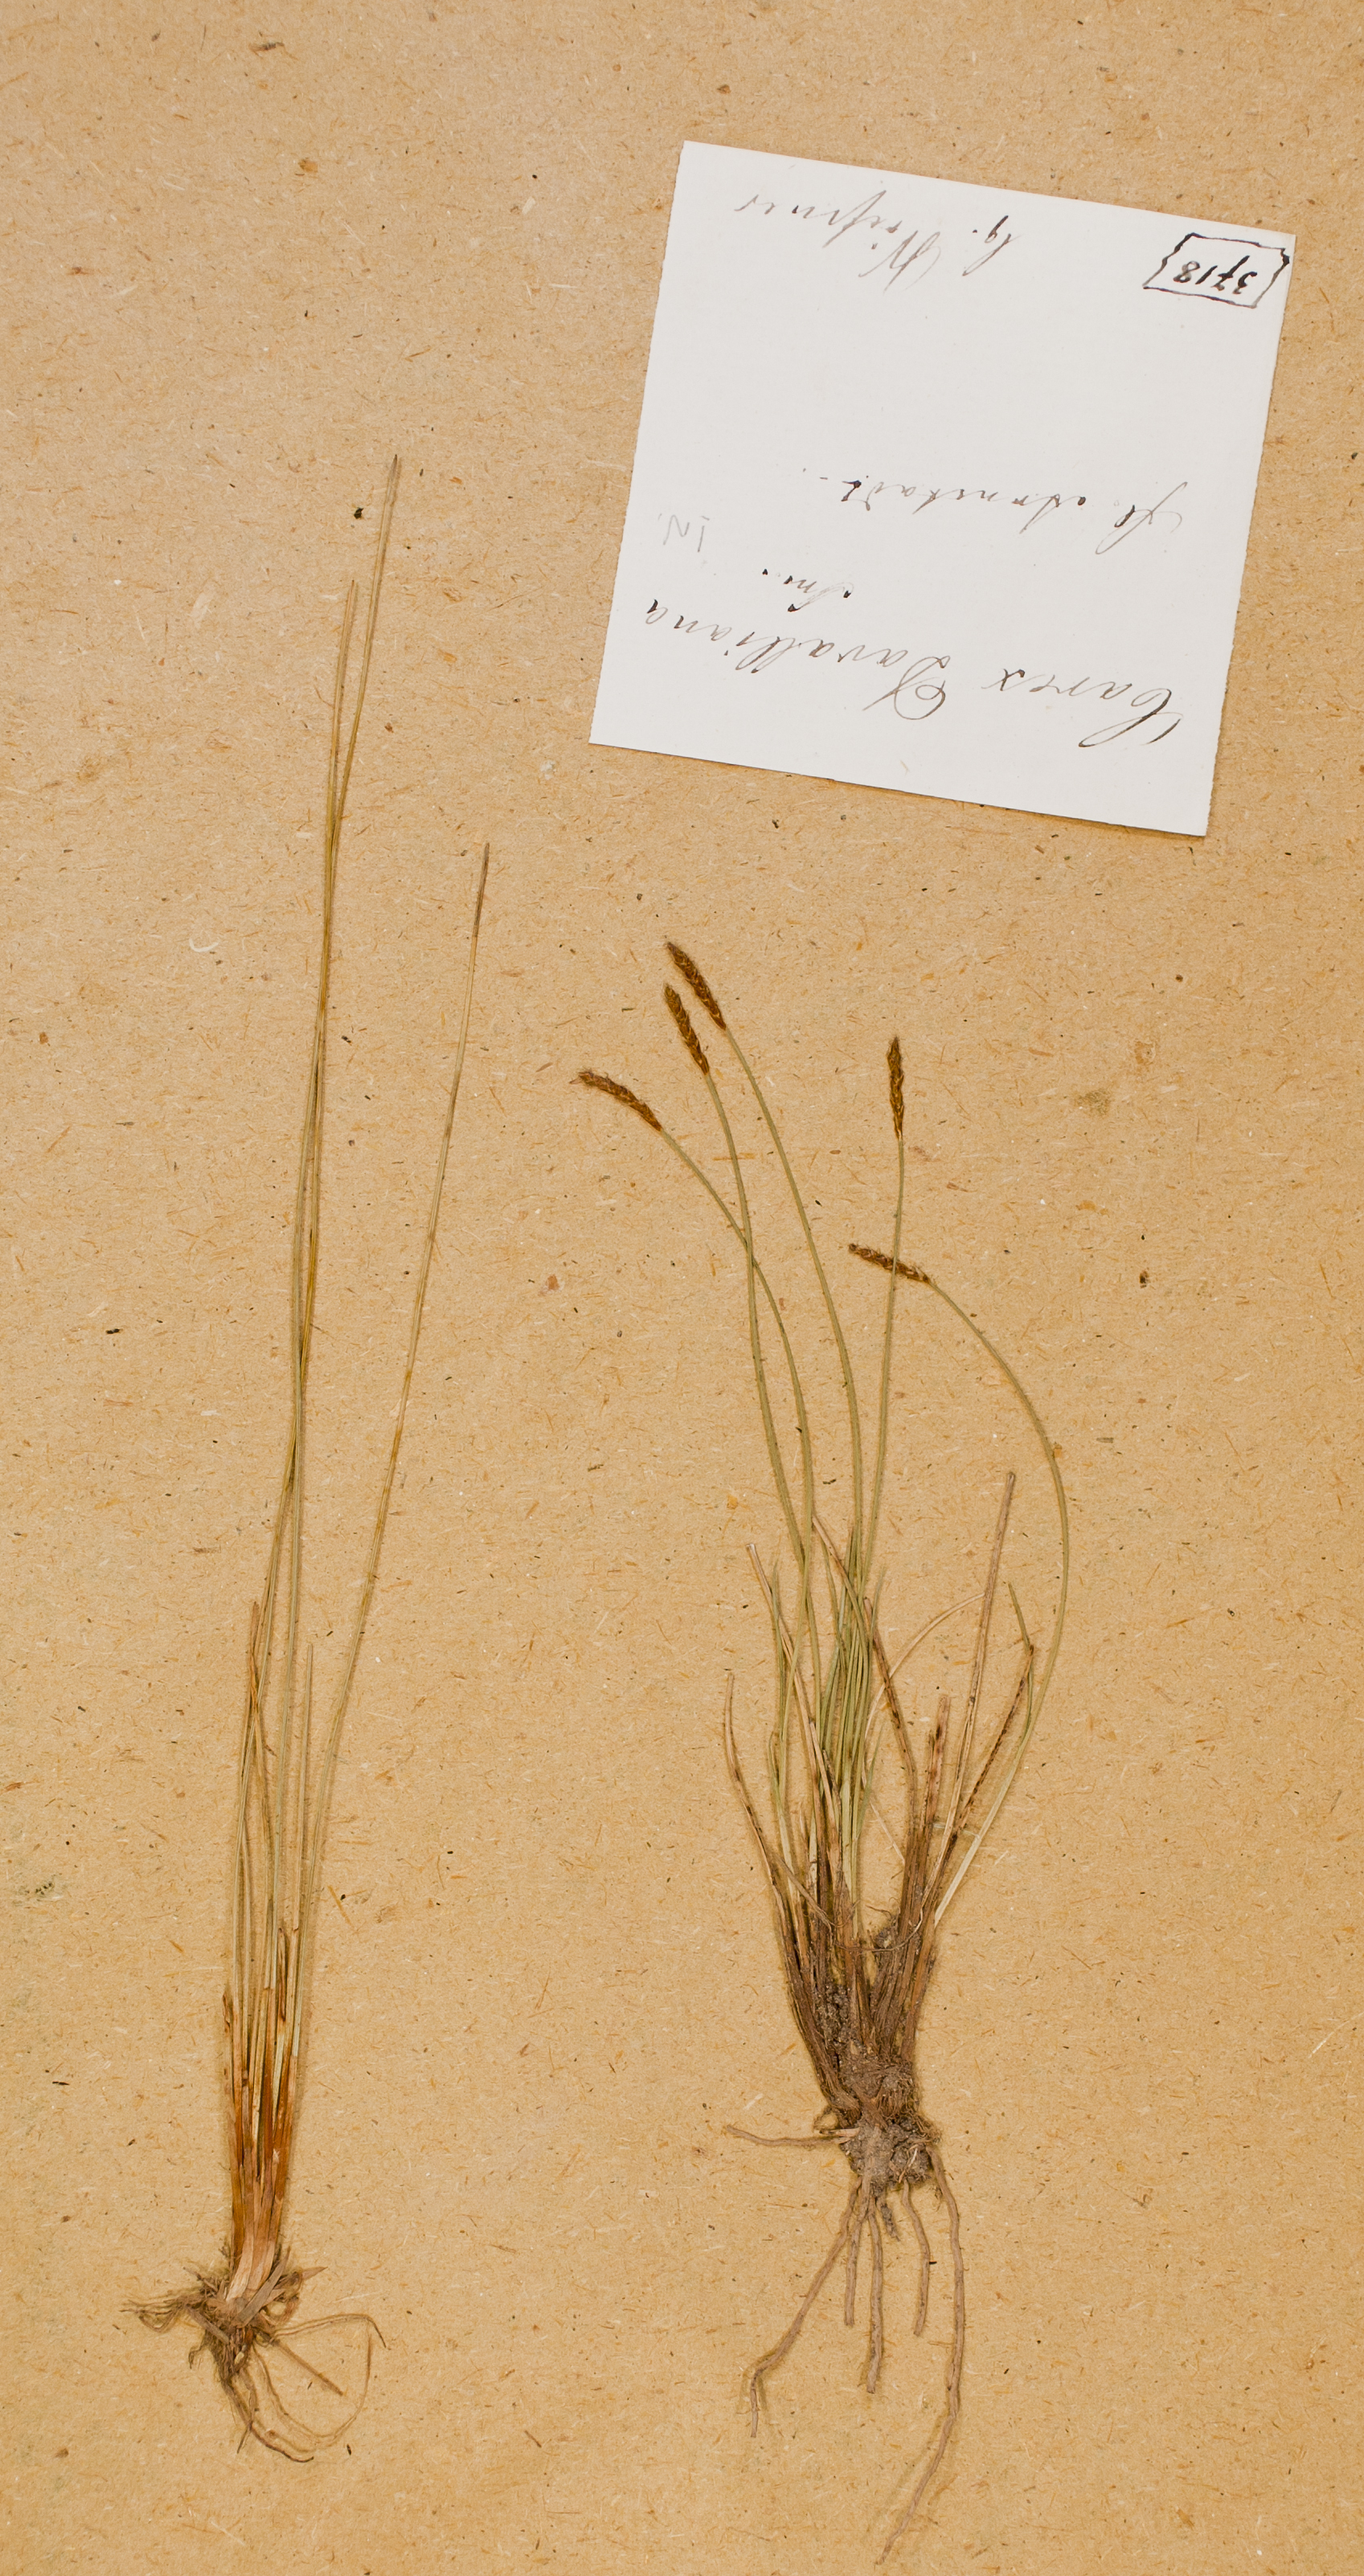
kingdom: Plantae
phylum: Tracheophyta
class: Liliopsida
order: Poales
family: Cyperaceae
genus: Carex
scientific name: Carex davalliana
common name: Davall's sedge
